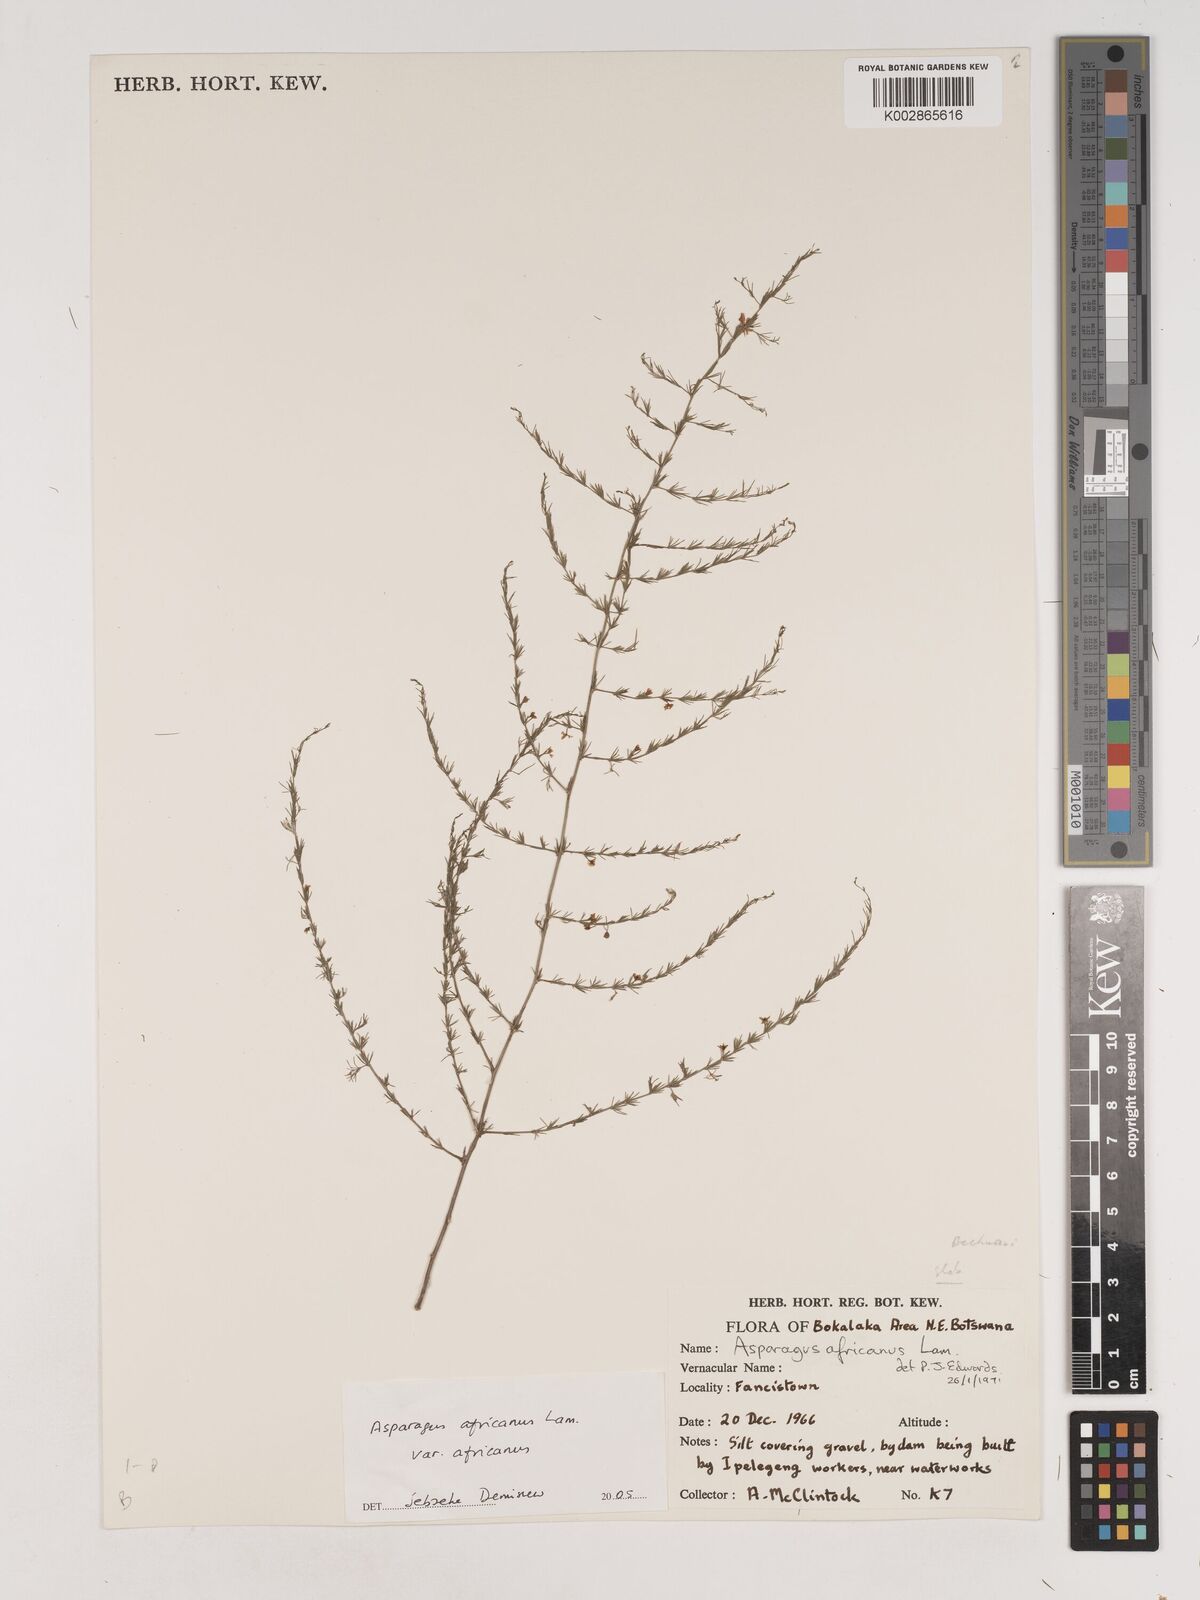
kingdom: Plantae
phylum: Tracheophyta
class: Liliopsida
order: Asparagales
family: Asparagaceae
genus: Asparagus
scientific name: Asparagus africanus
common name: Asparagus-fern
